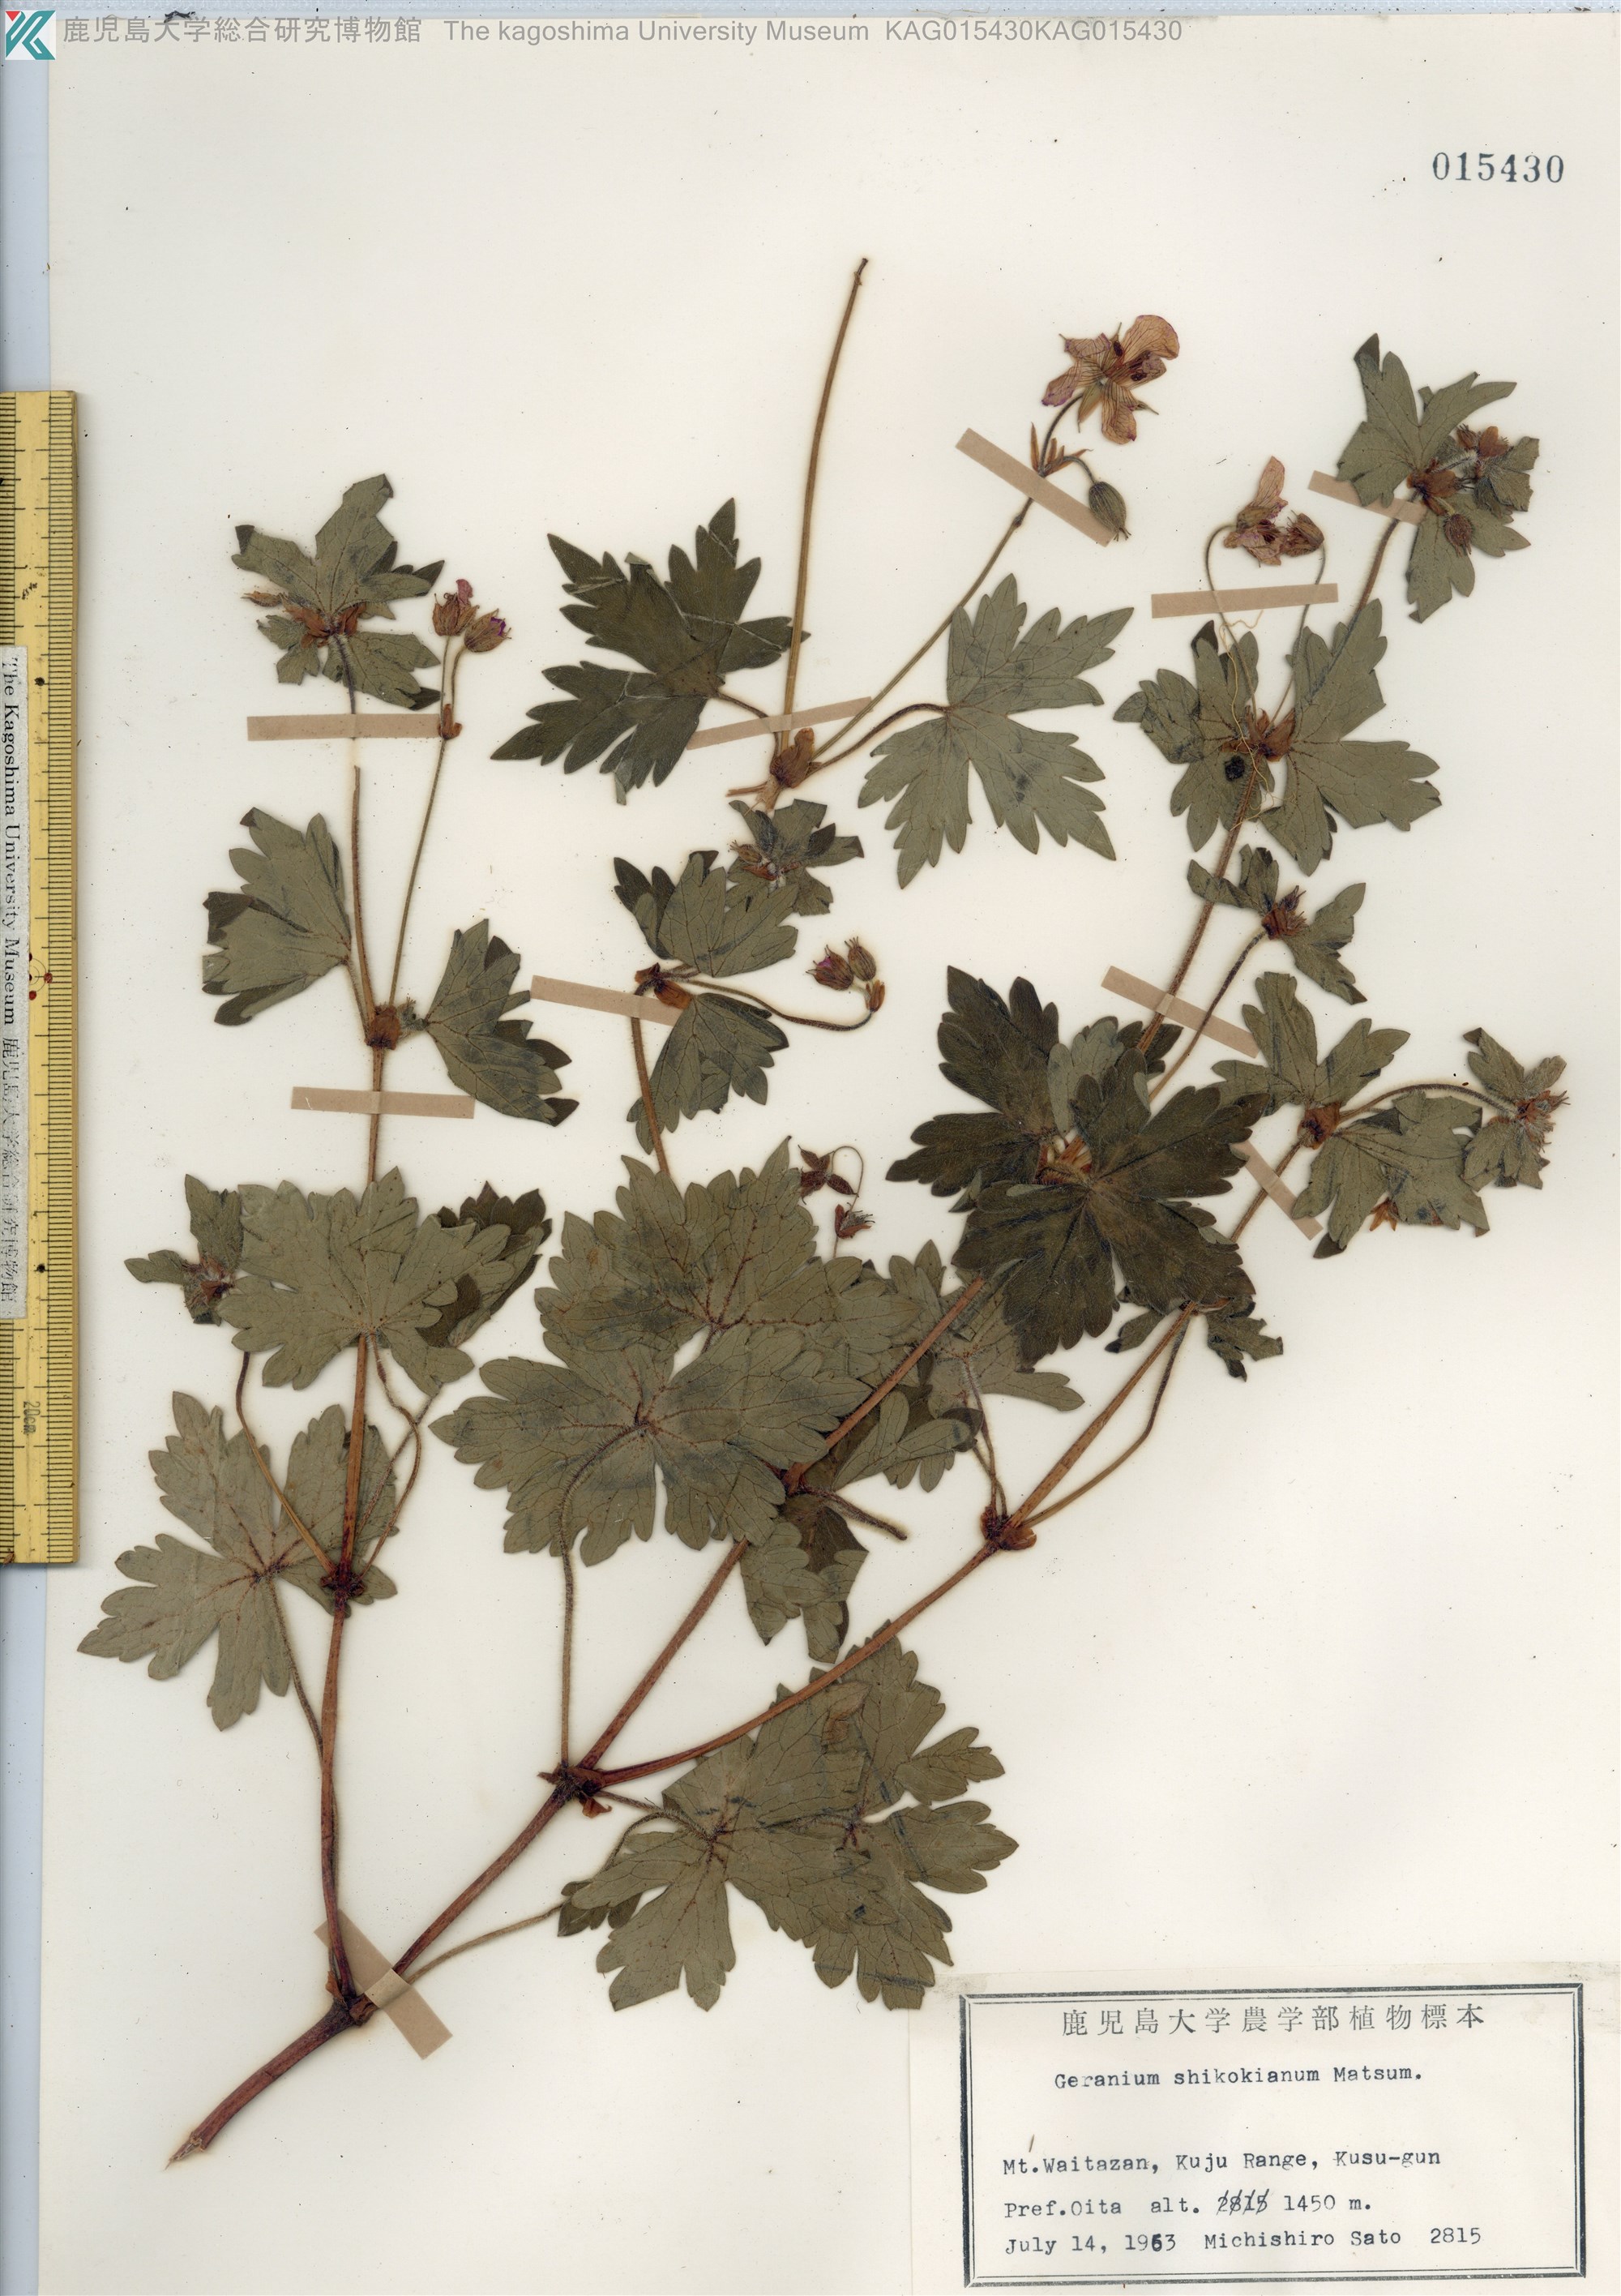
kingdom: Plantae
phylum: Tracheophyta
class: Magnoliopsida
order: Geraniales
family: Geraniaceae
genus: Geranium
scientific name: Geranium shikokianum
